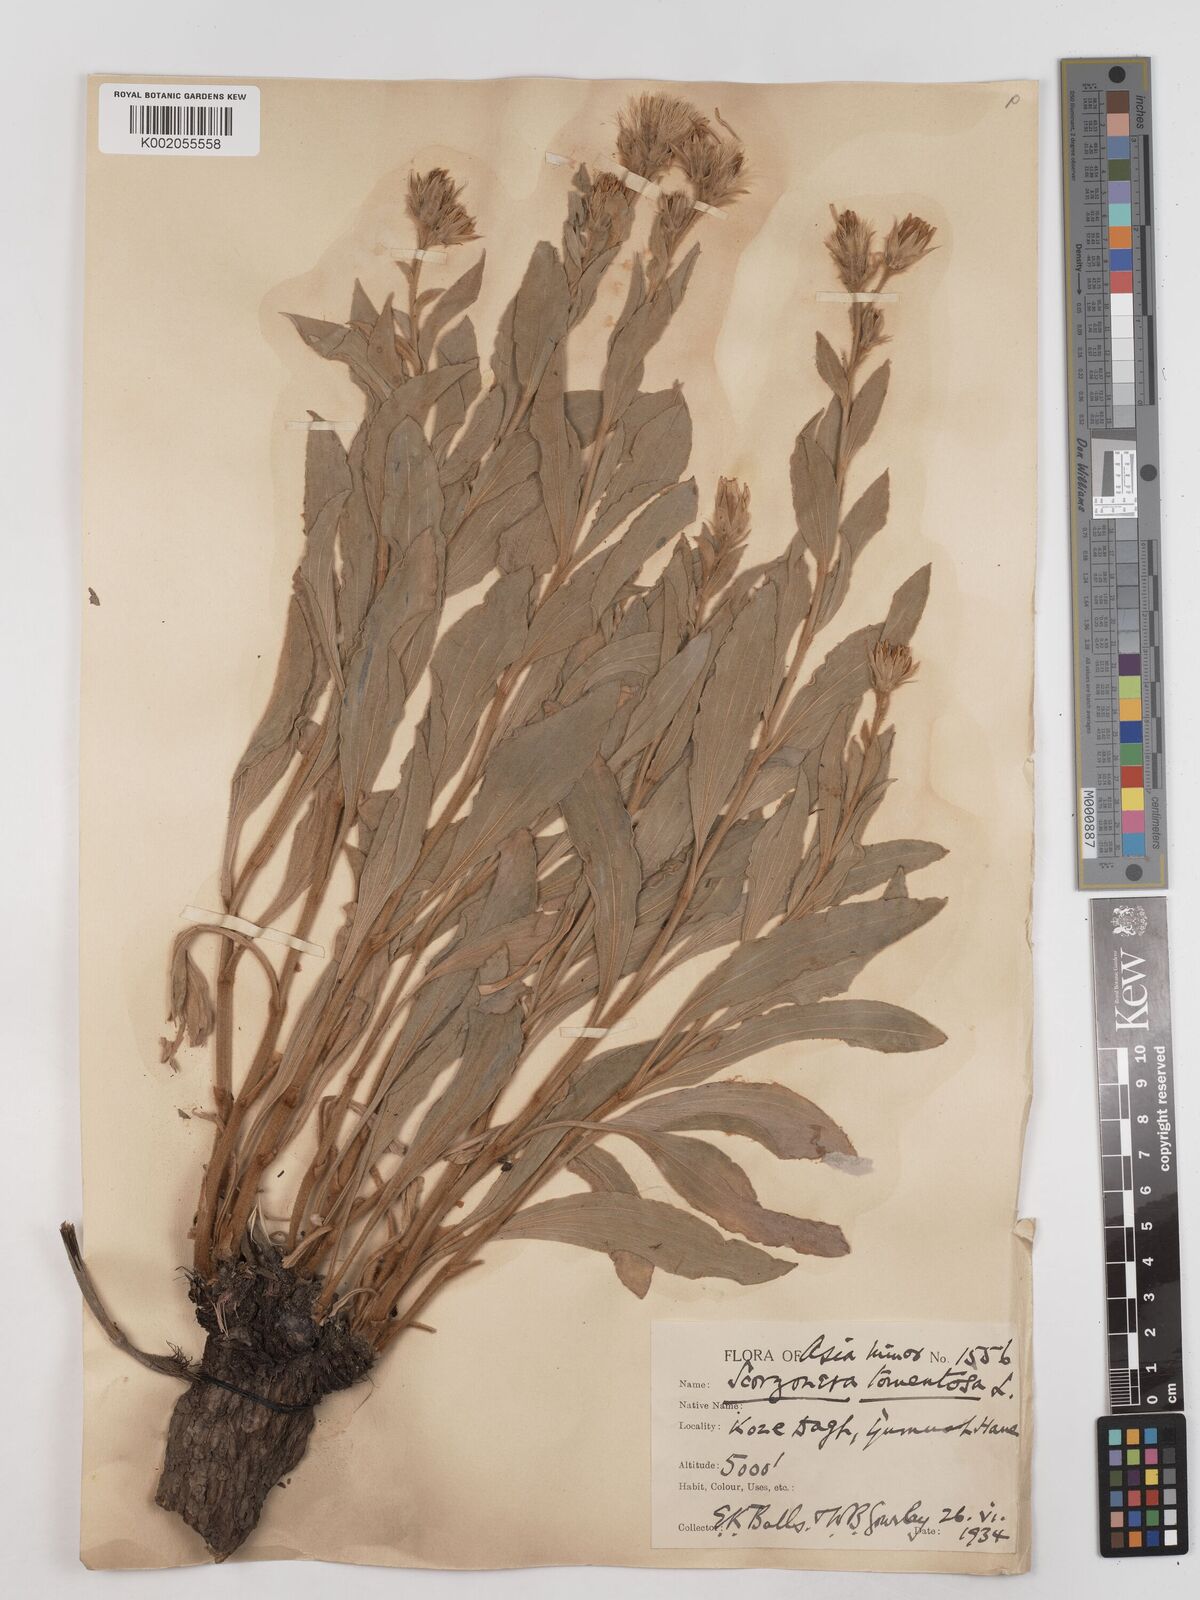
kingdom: Plantae
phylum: Tracheophyta
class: Magnoliopsida
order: Asterales
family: Asteraceae
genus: Candollea
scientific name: Candollea mollis
